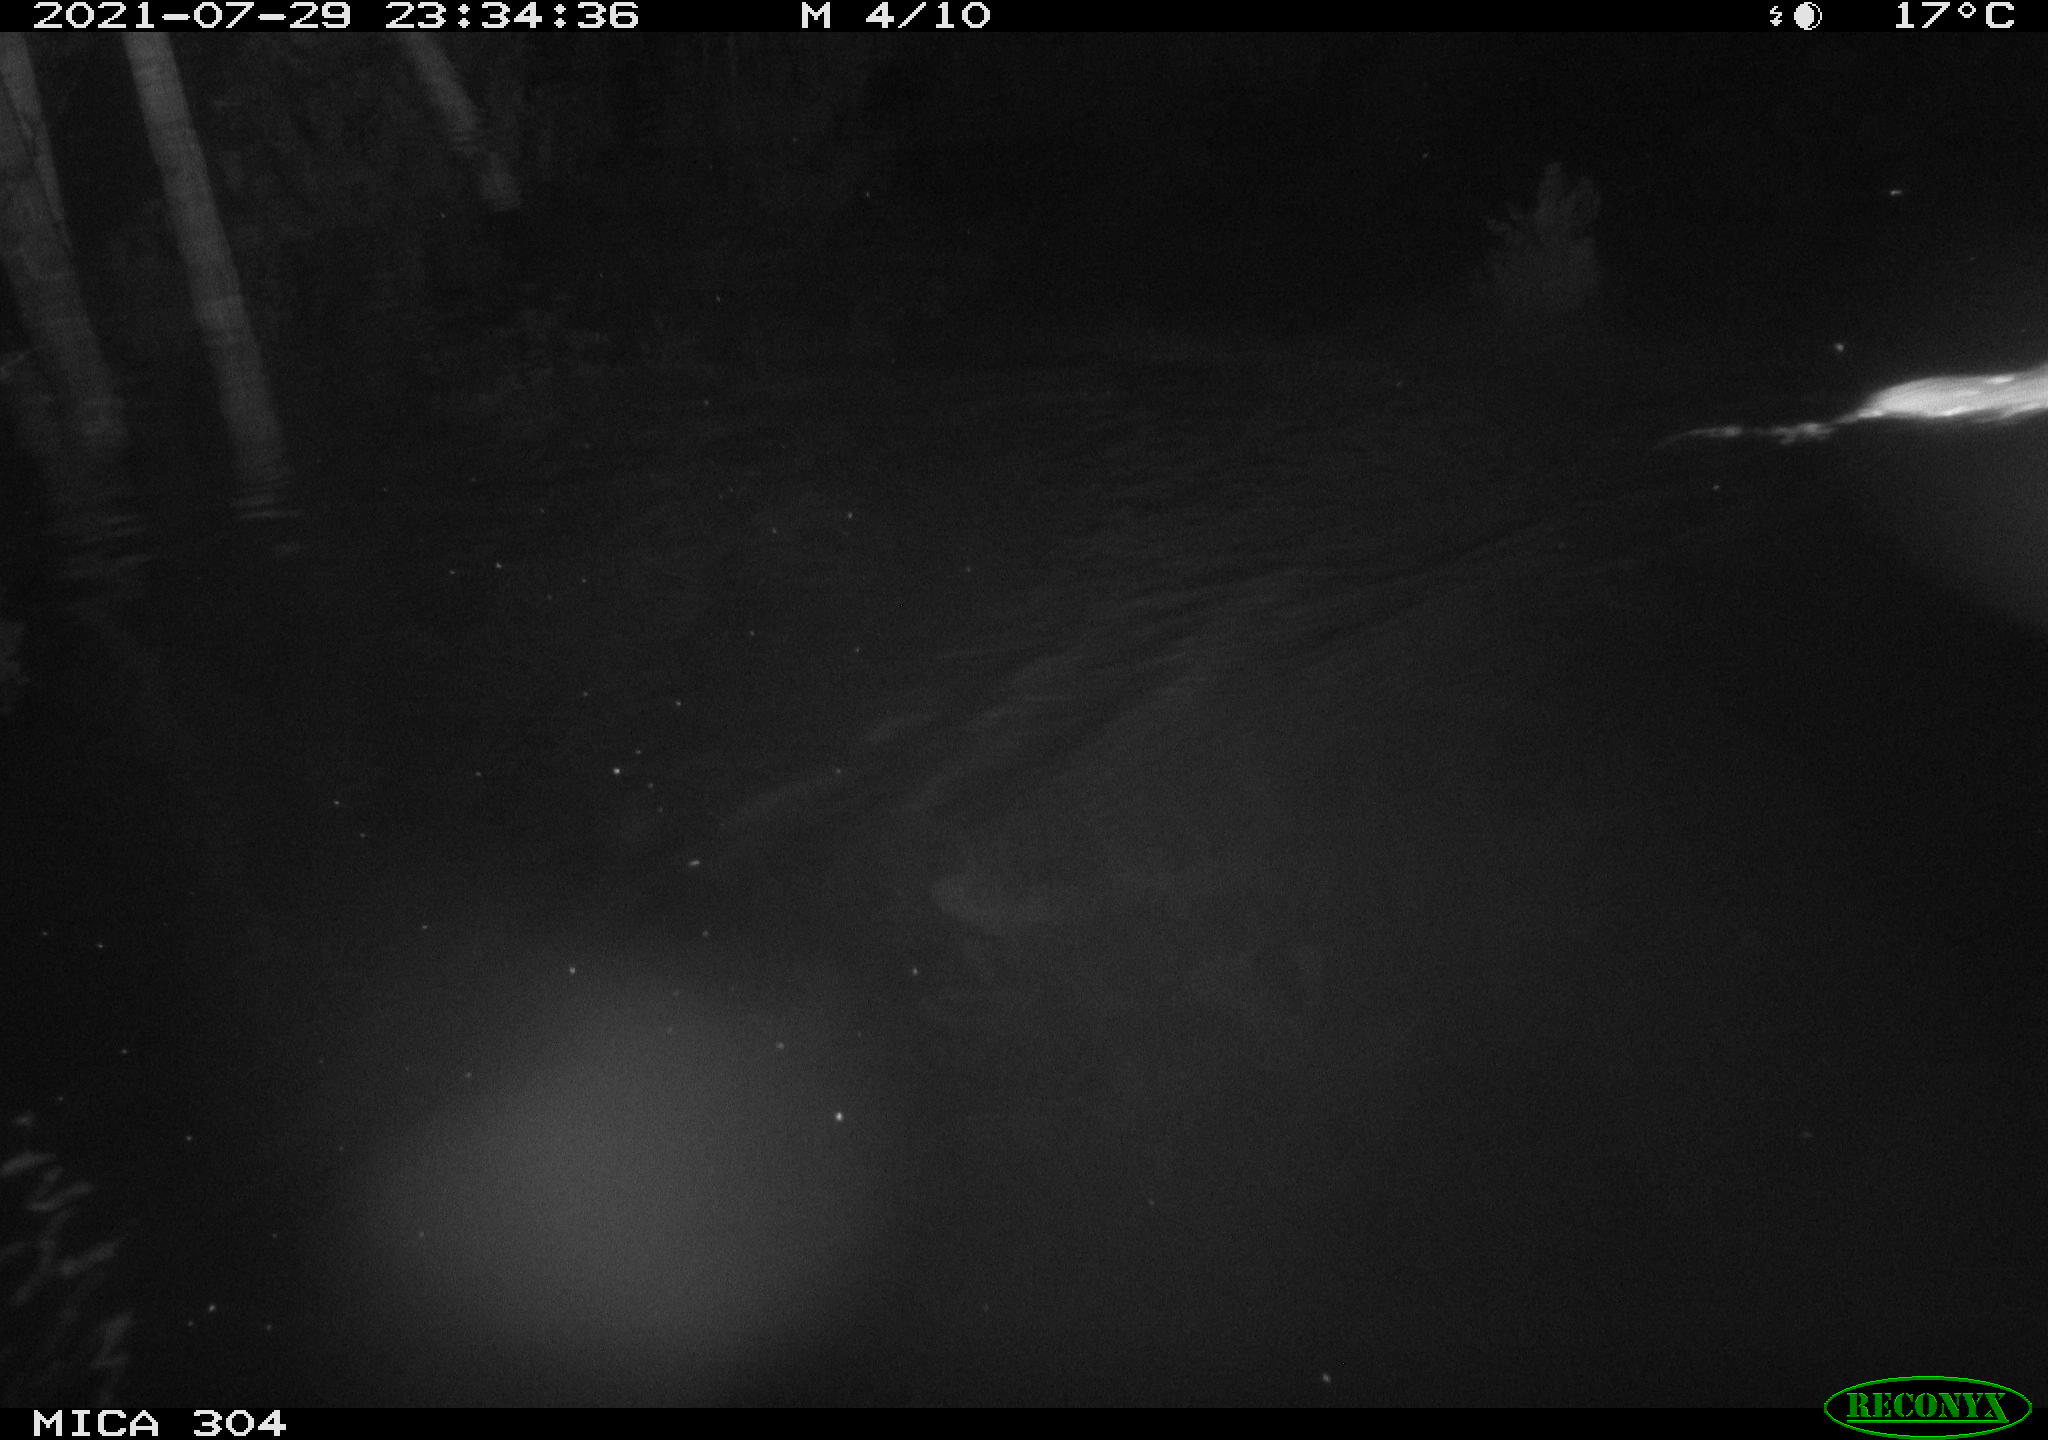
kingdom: Animalia
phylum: Chordata
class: Mammalia
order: Rodentia
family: Muridae
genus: Rattus
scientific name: Rattus norvegicus
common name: Brown rat
